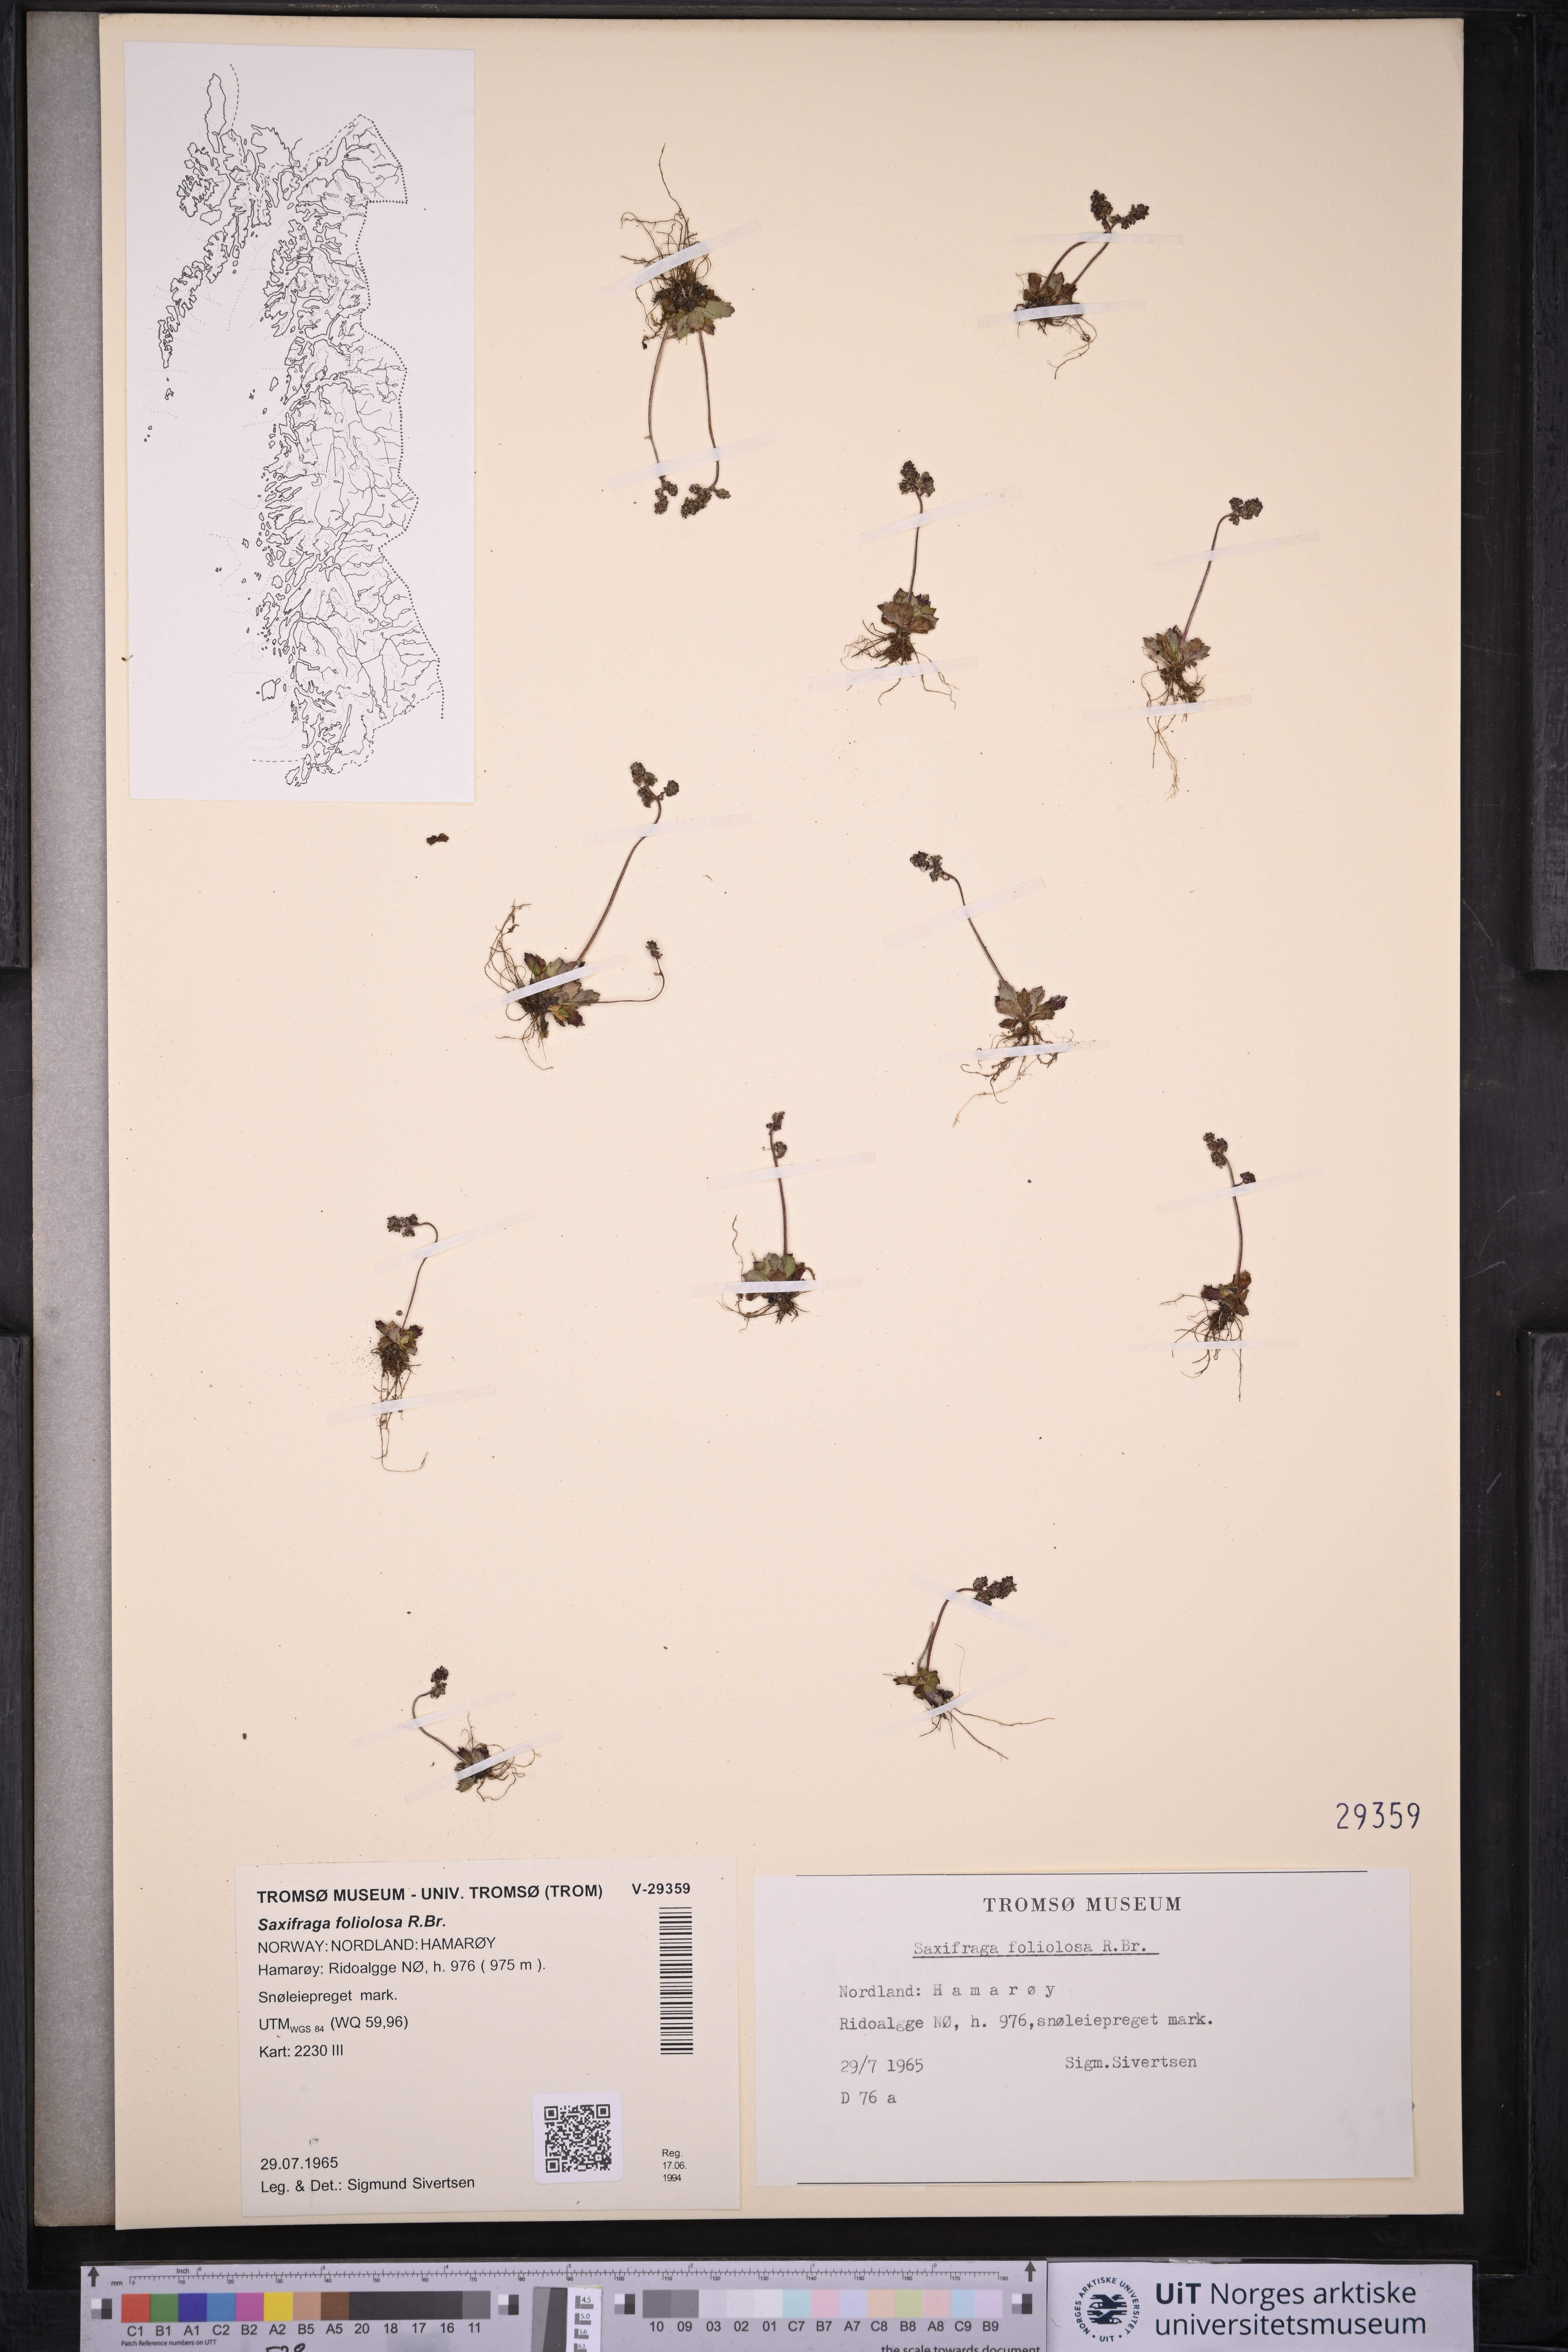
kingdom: Plantae
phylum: Tracheophyta
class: Magnoliopsida
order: Saxifragales
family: Saxifragaceae
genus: Micranthes
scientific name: Micranthes foliolosa
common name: Leafystem saxifrage
